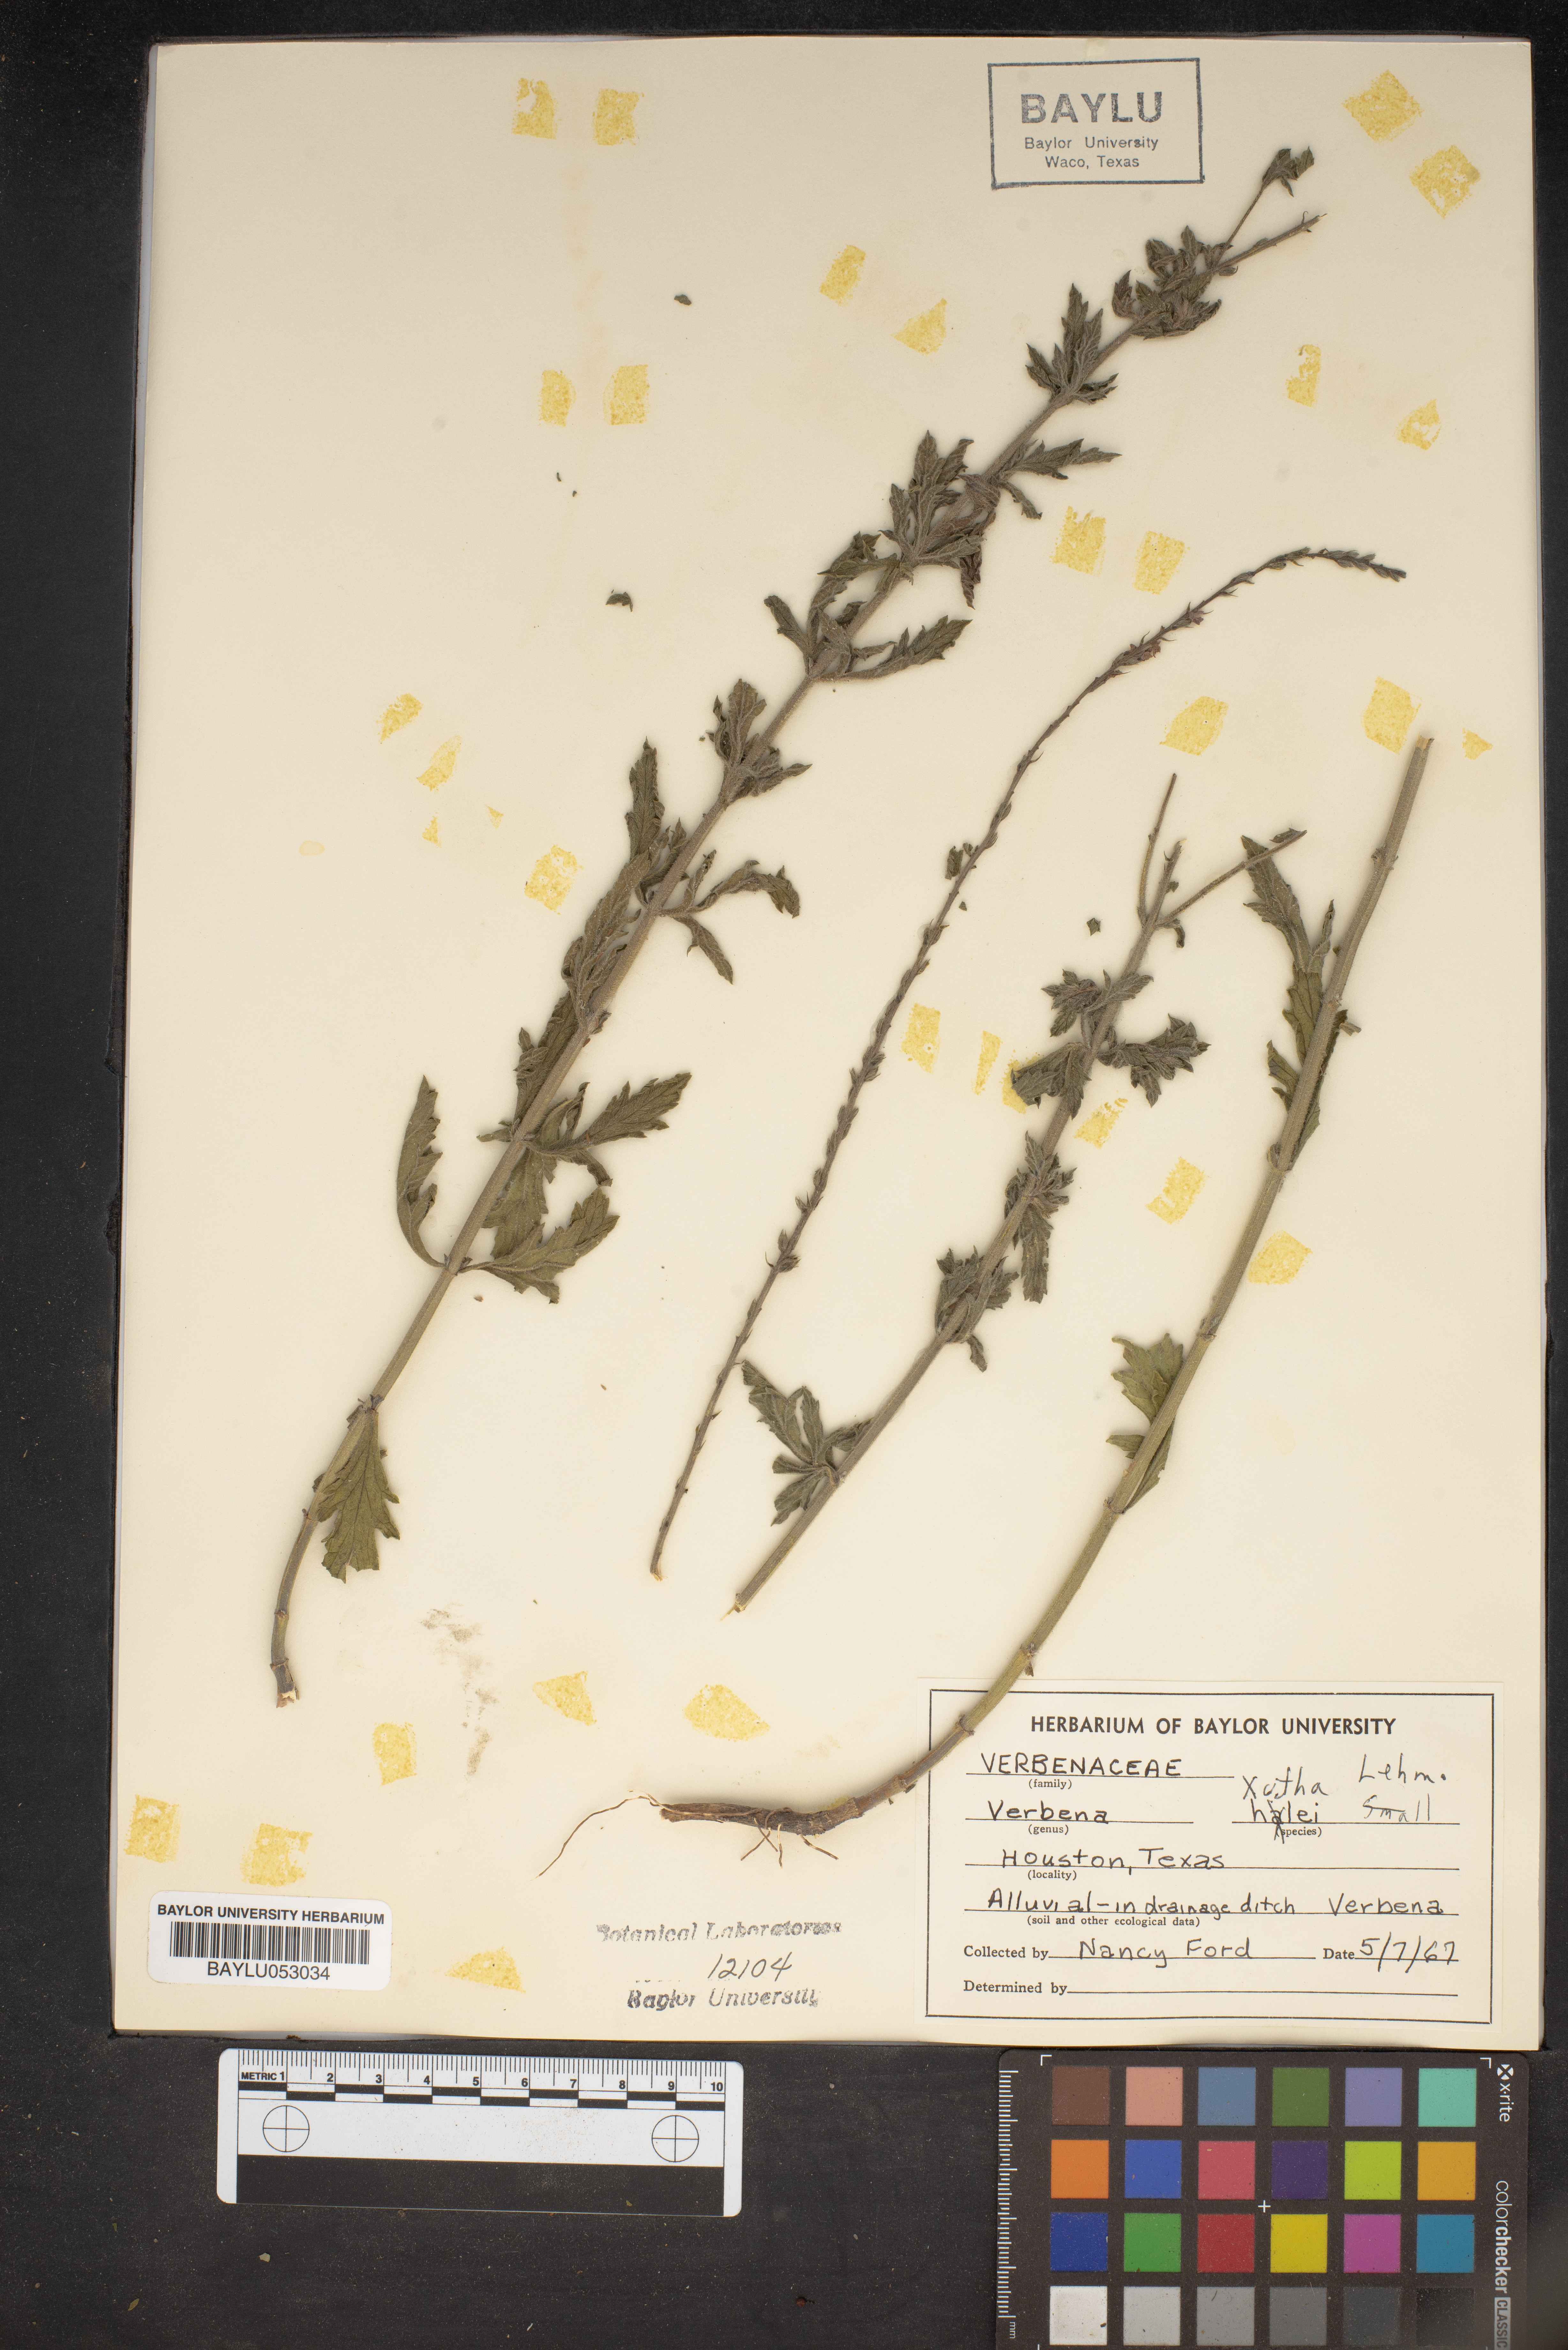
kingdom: Plantae
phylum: Tracheophyta
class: Magnoliopsida
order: Lamiales
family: Verbenaceae
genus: Verbena
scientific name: Verbena xutha
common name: Gulf vervain
